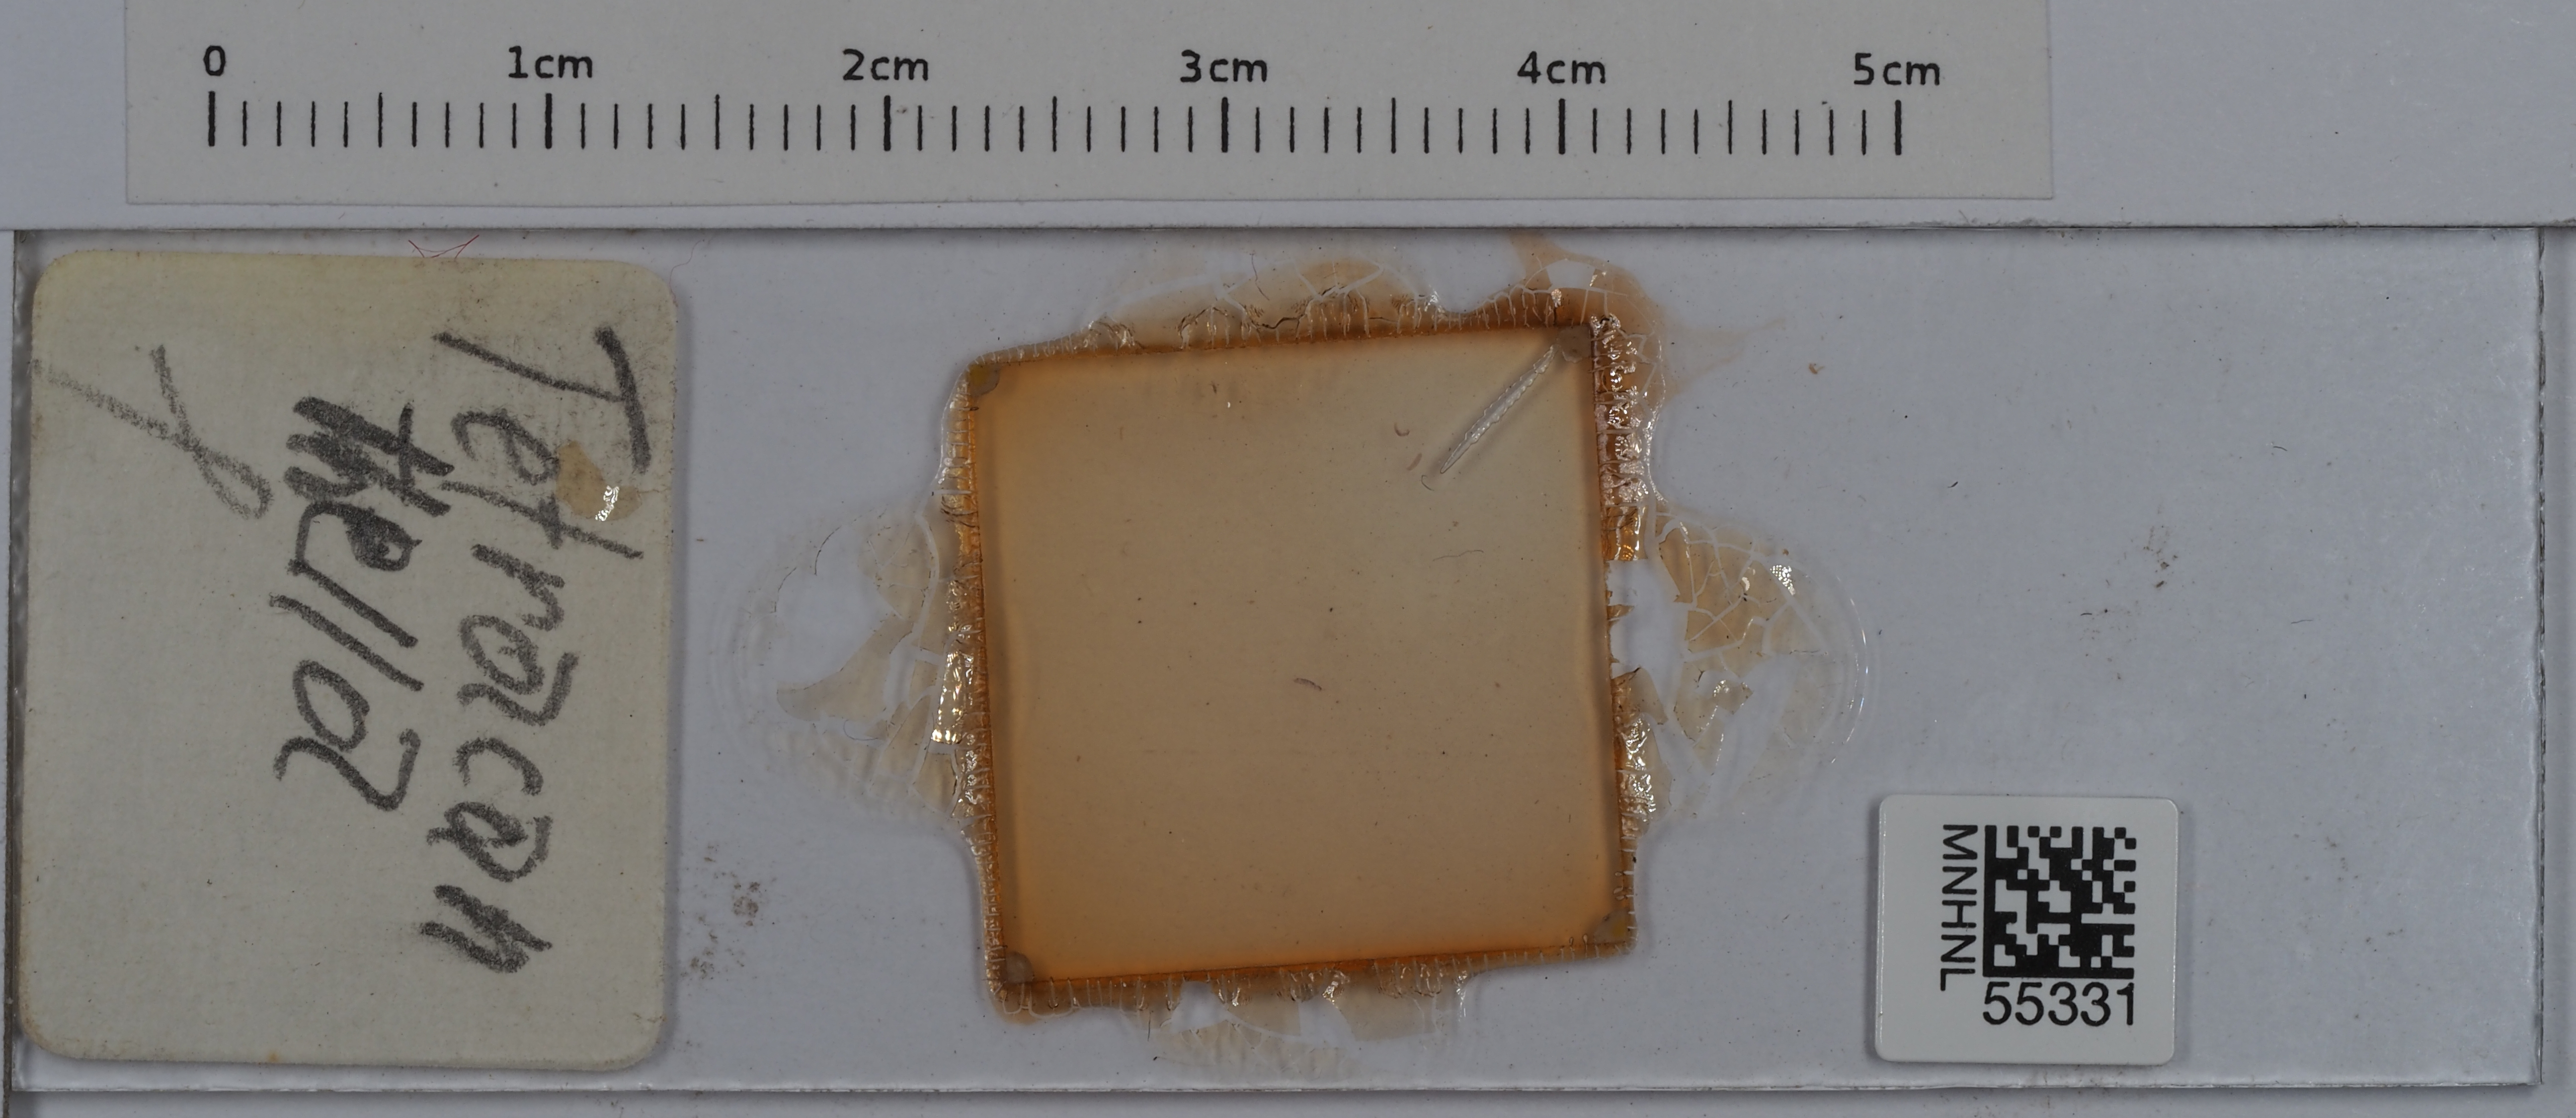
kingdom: Animalia
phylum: Arthropoda
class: Collembola
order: Entomobryomorpha
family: Isotomidae
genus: Tetracanthella
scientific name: Tetracanthella
